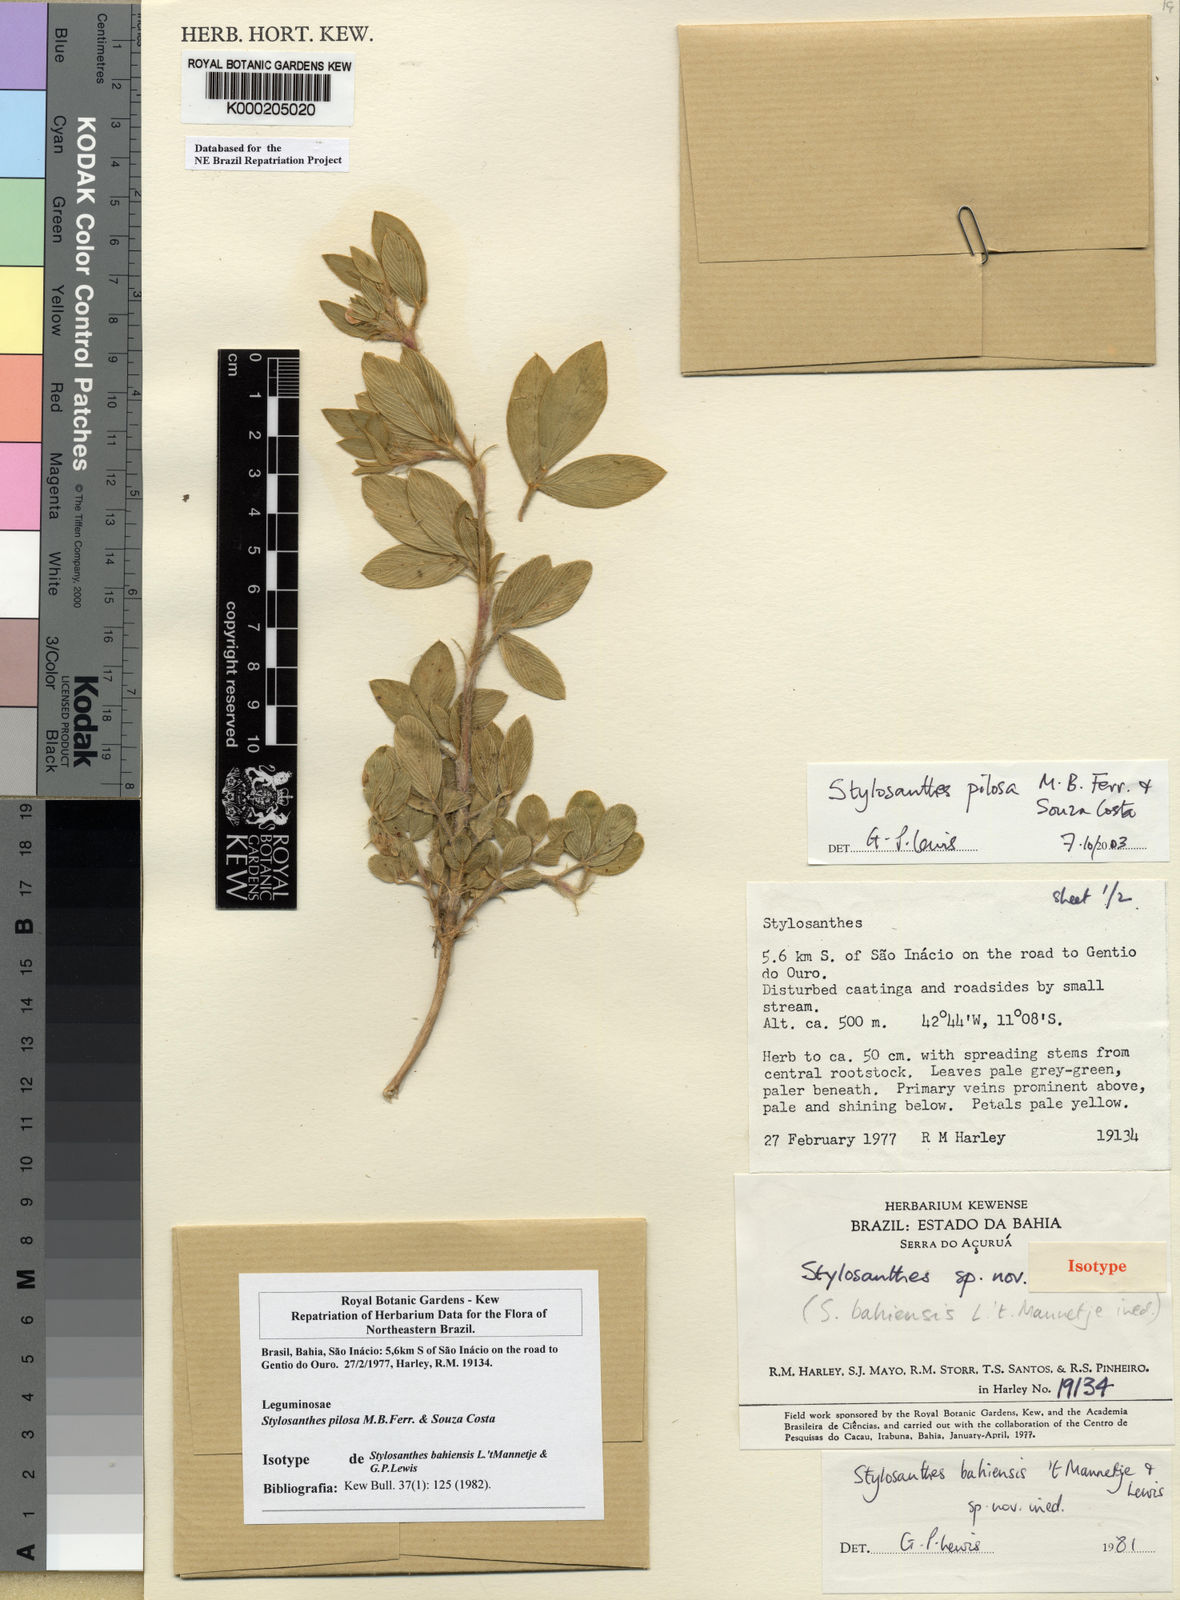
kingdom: Plantae
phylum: Tracheophyta
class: Magnoliopsida
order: Fabales
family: Fabaceae
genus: Stylosanthes
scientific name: Stylosanthes viscosa
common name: Viscid pencil-flower
